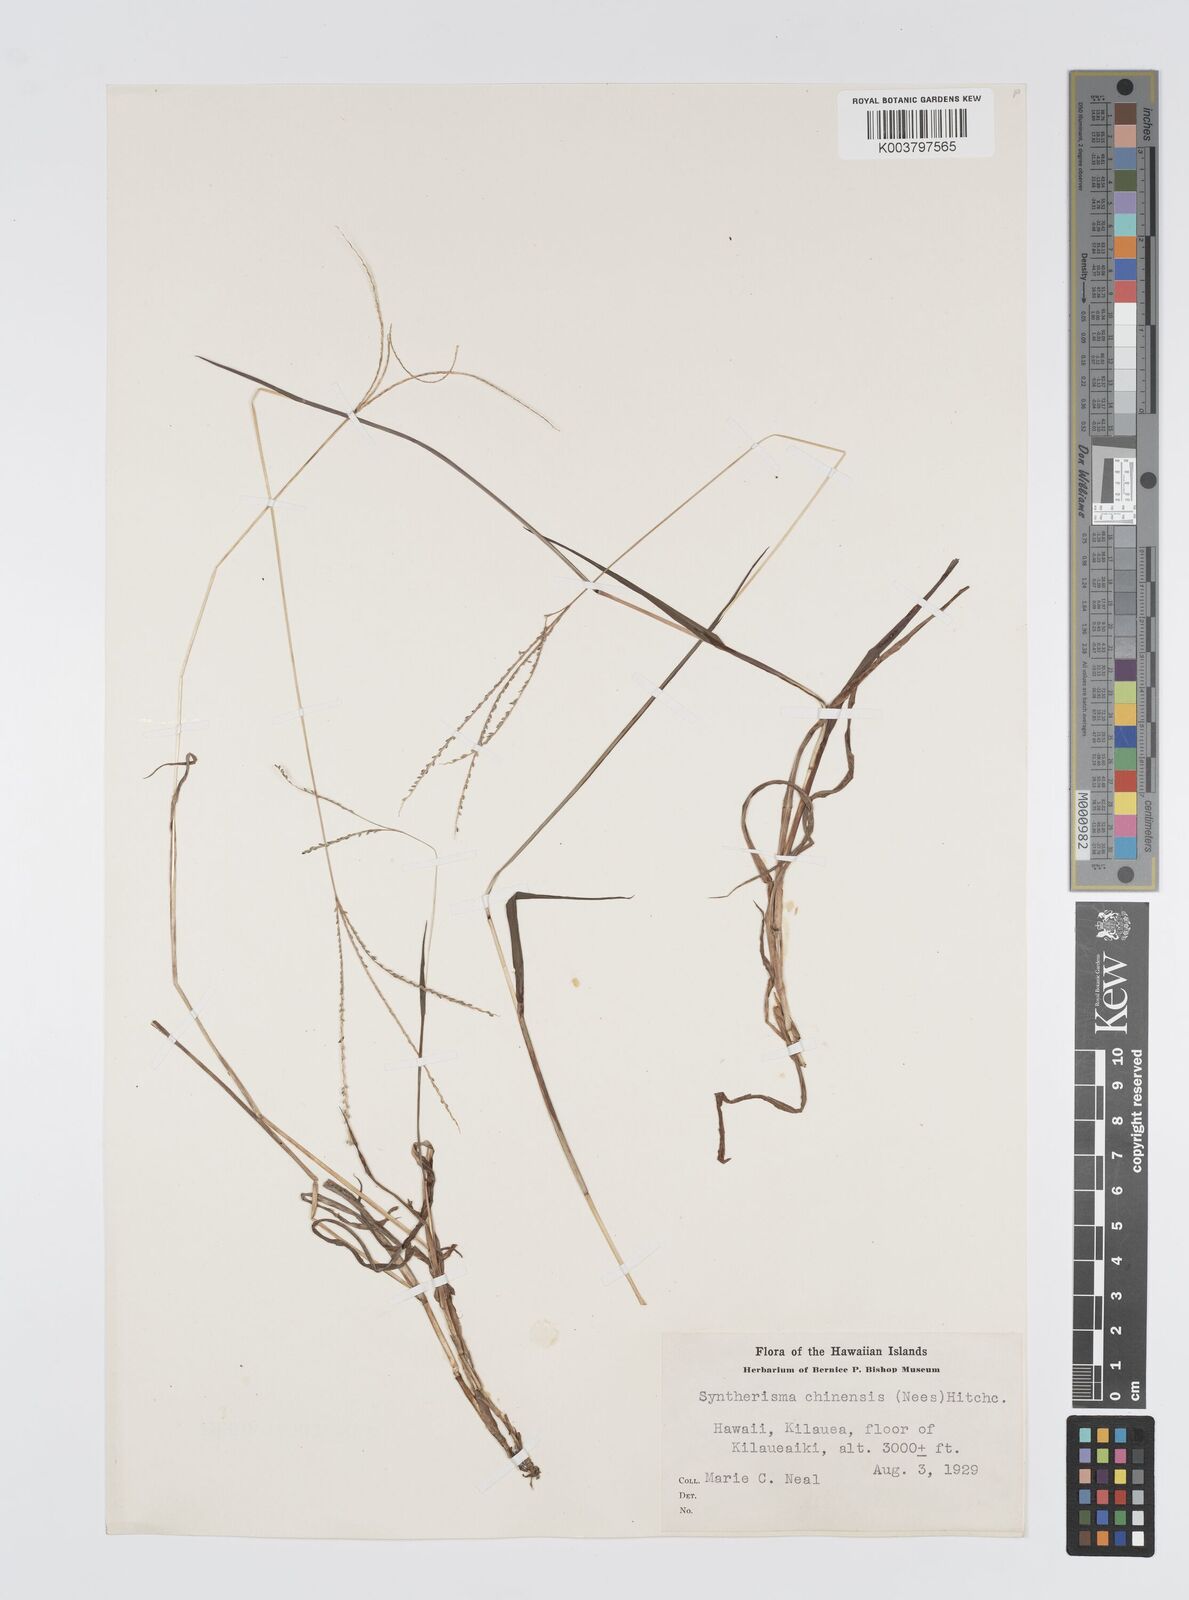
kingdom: Plantae
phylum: Tracheophyta
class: Liliopsida
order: Poales
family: Poaceae
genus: Digitaria
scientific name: Digitaria violascens
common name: Violet crabgrass
